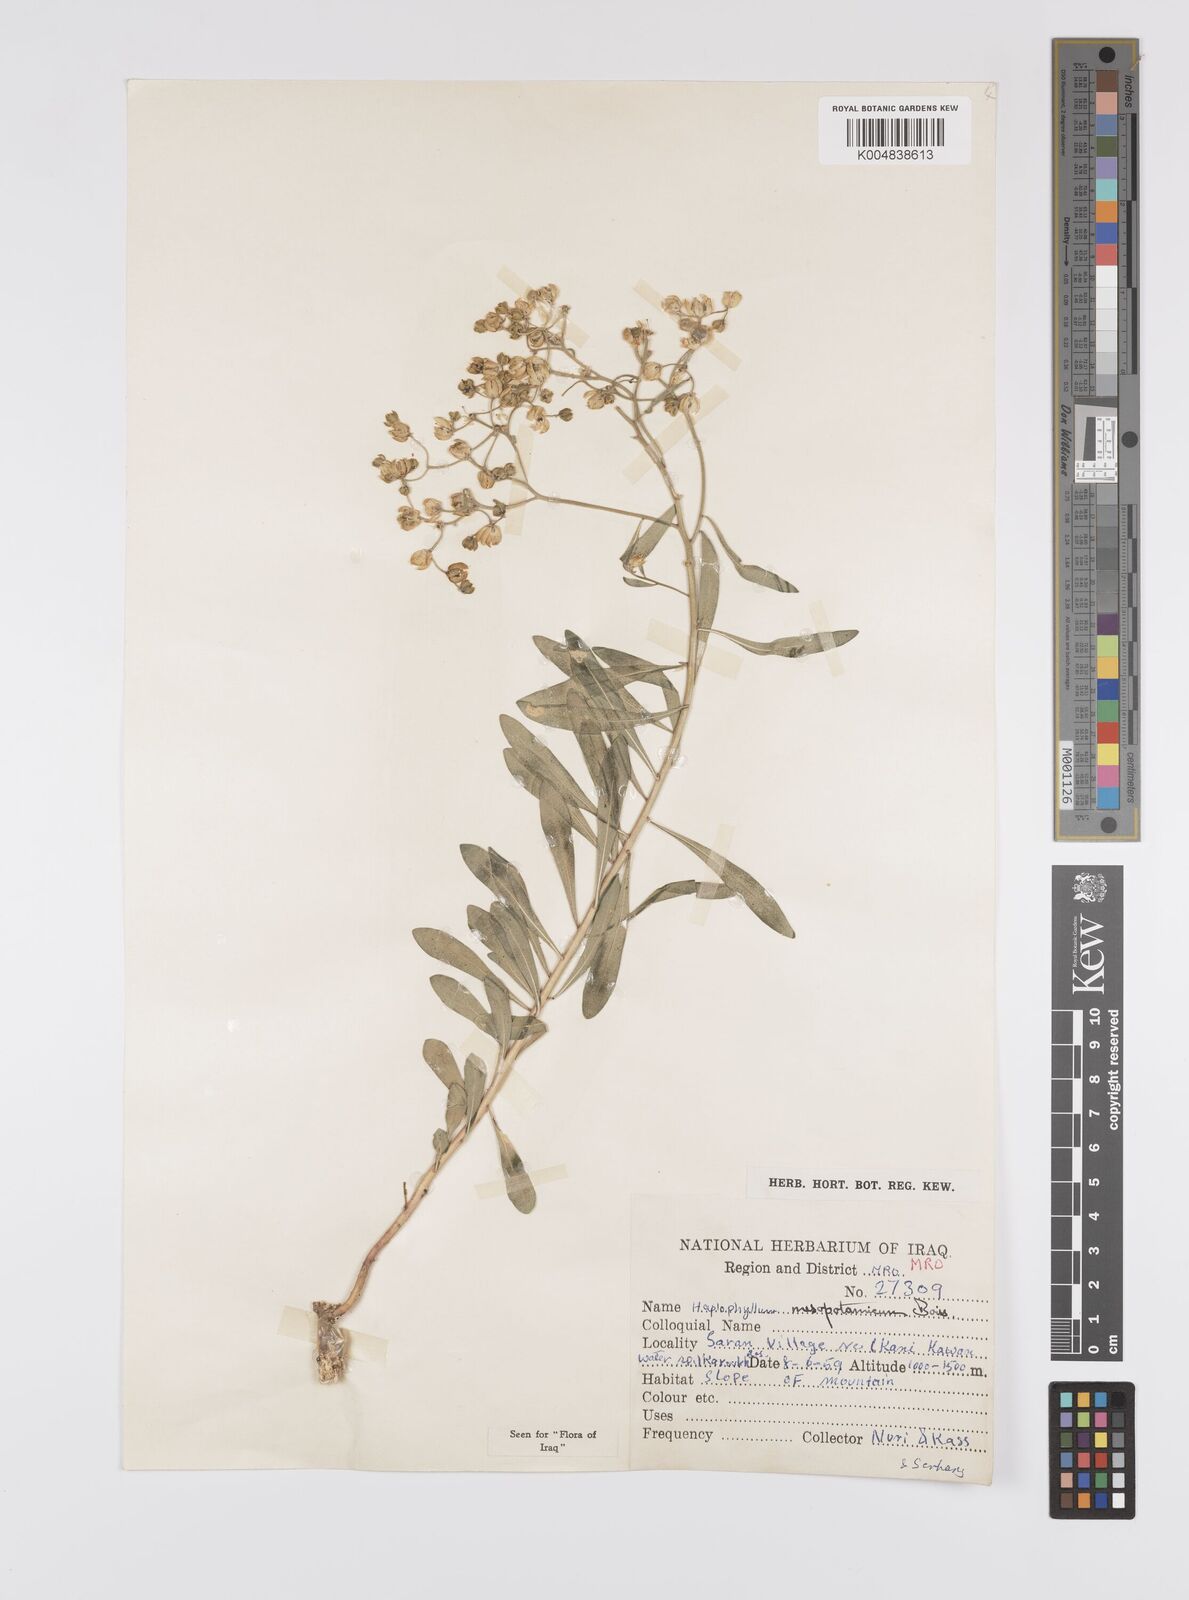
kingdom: Plantae
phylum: Tracheophyta
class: Magnoliopsida
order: Sapindales
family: Rutaceae
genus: Haplophyllum
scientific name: Haplophyllum buxbaumii
